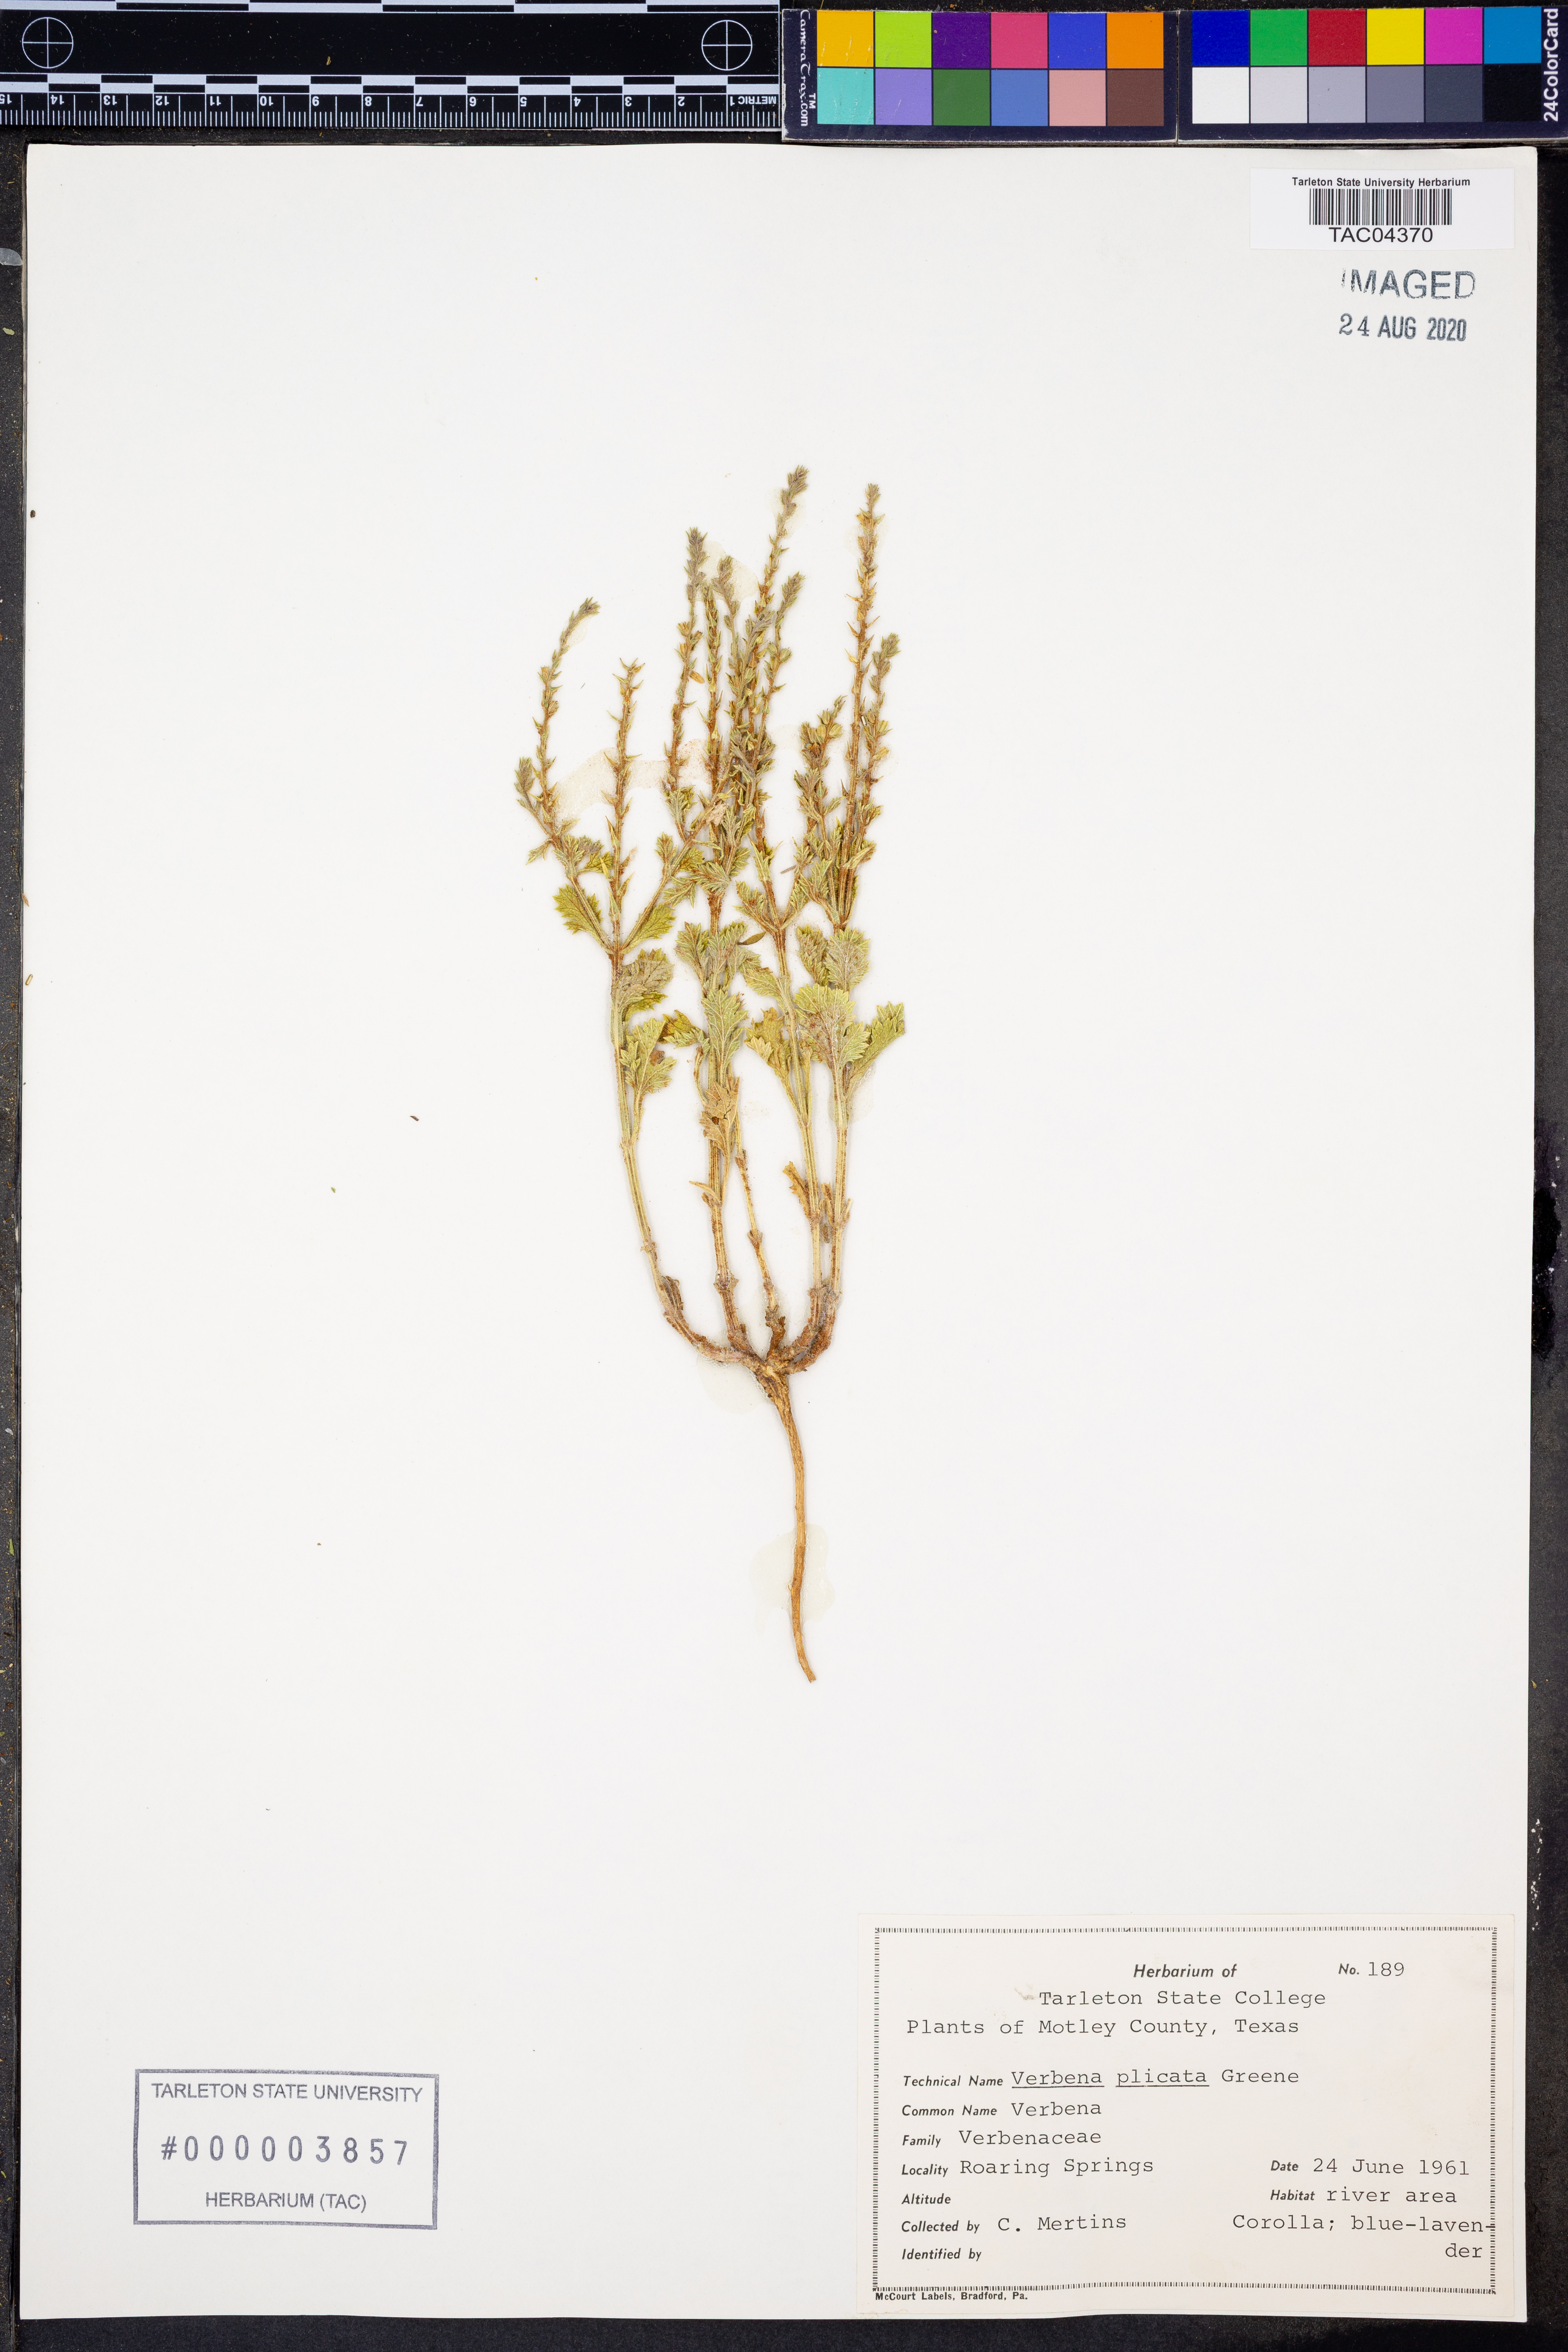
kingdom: Plantae
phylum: Tracheophyta
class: Magnoliopsida
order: Lamiales
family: Verbenaceae
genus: Verbena
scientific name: Verbena plicata
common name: Fan-leaf vervain
